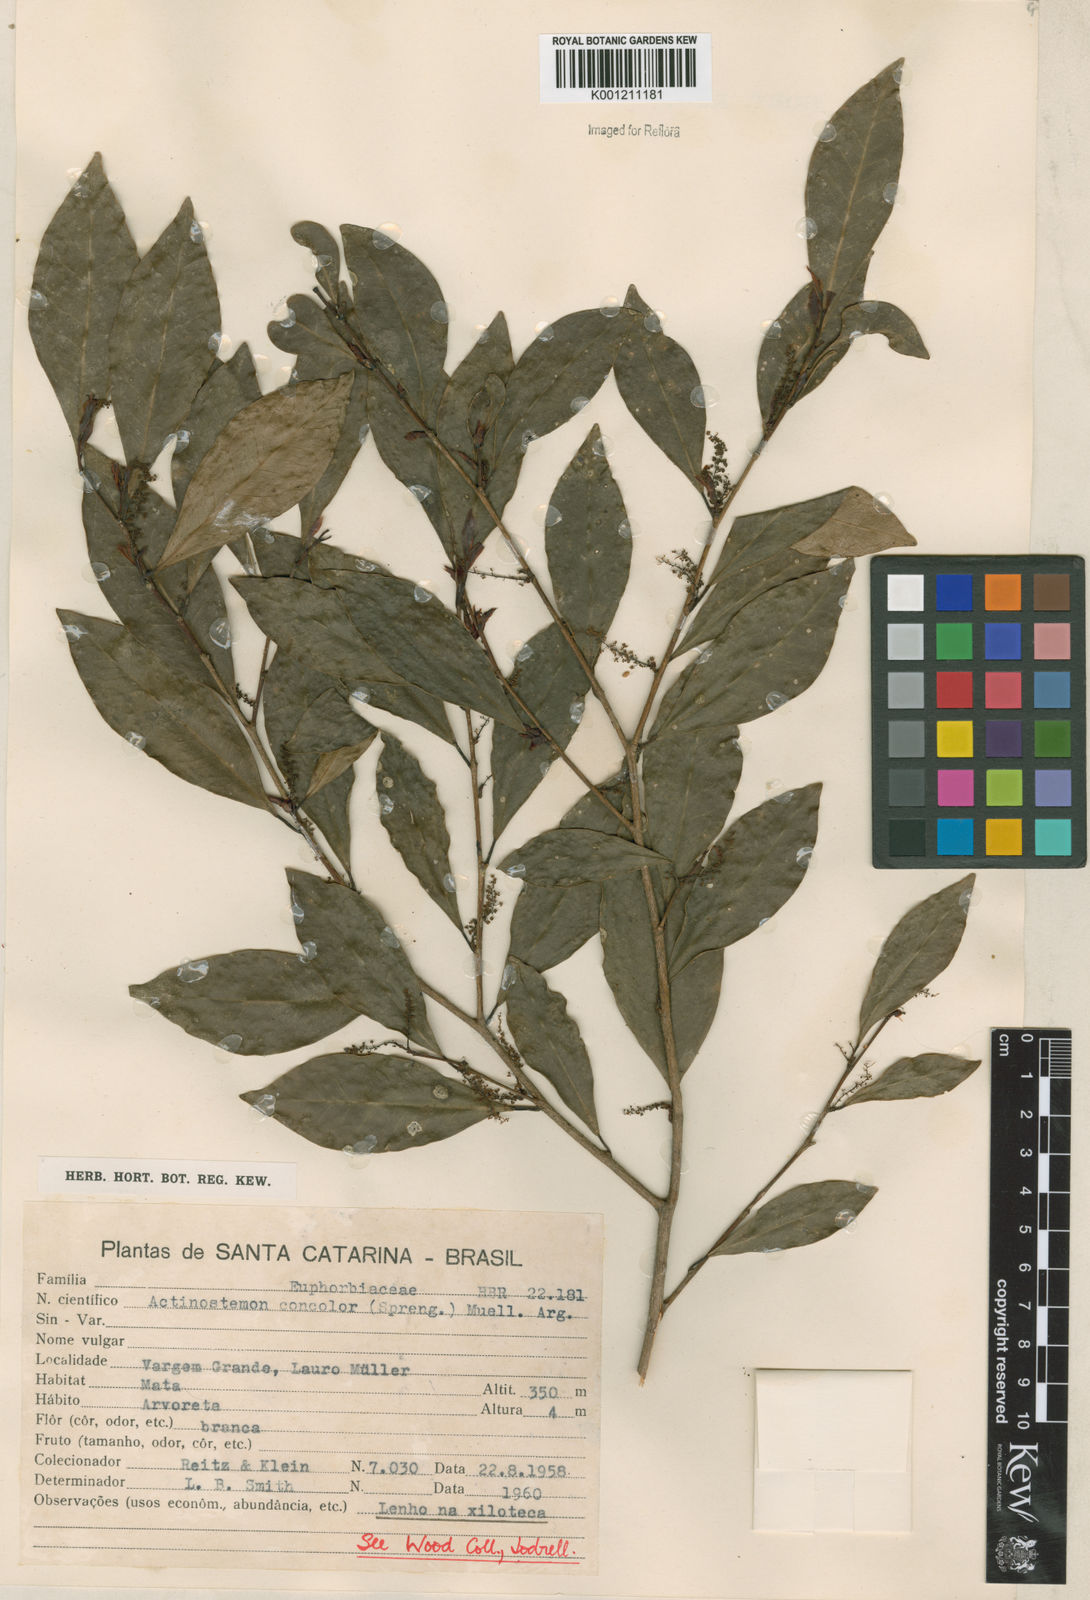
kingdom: Plantae
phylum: Tracheophyta
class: Magnoliopsida
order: Malpighiales
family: Euphorbiaceae
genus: Actinostemon
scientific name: Actinostemon
